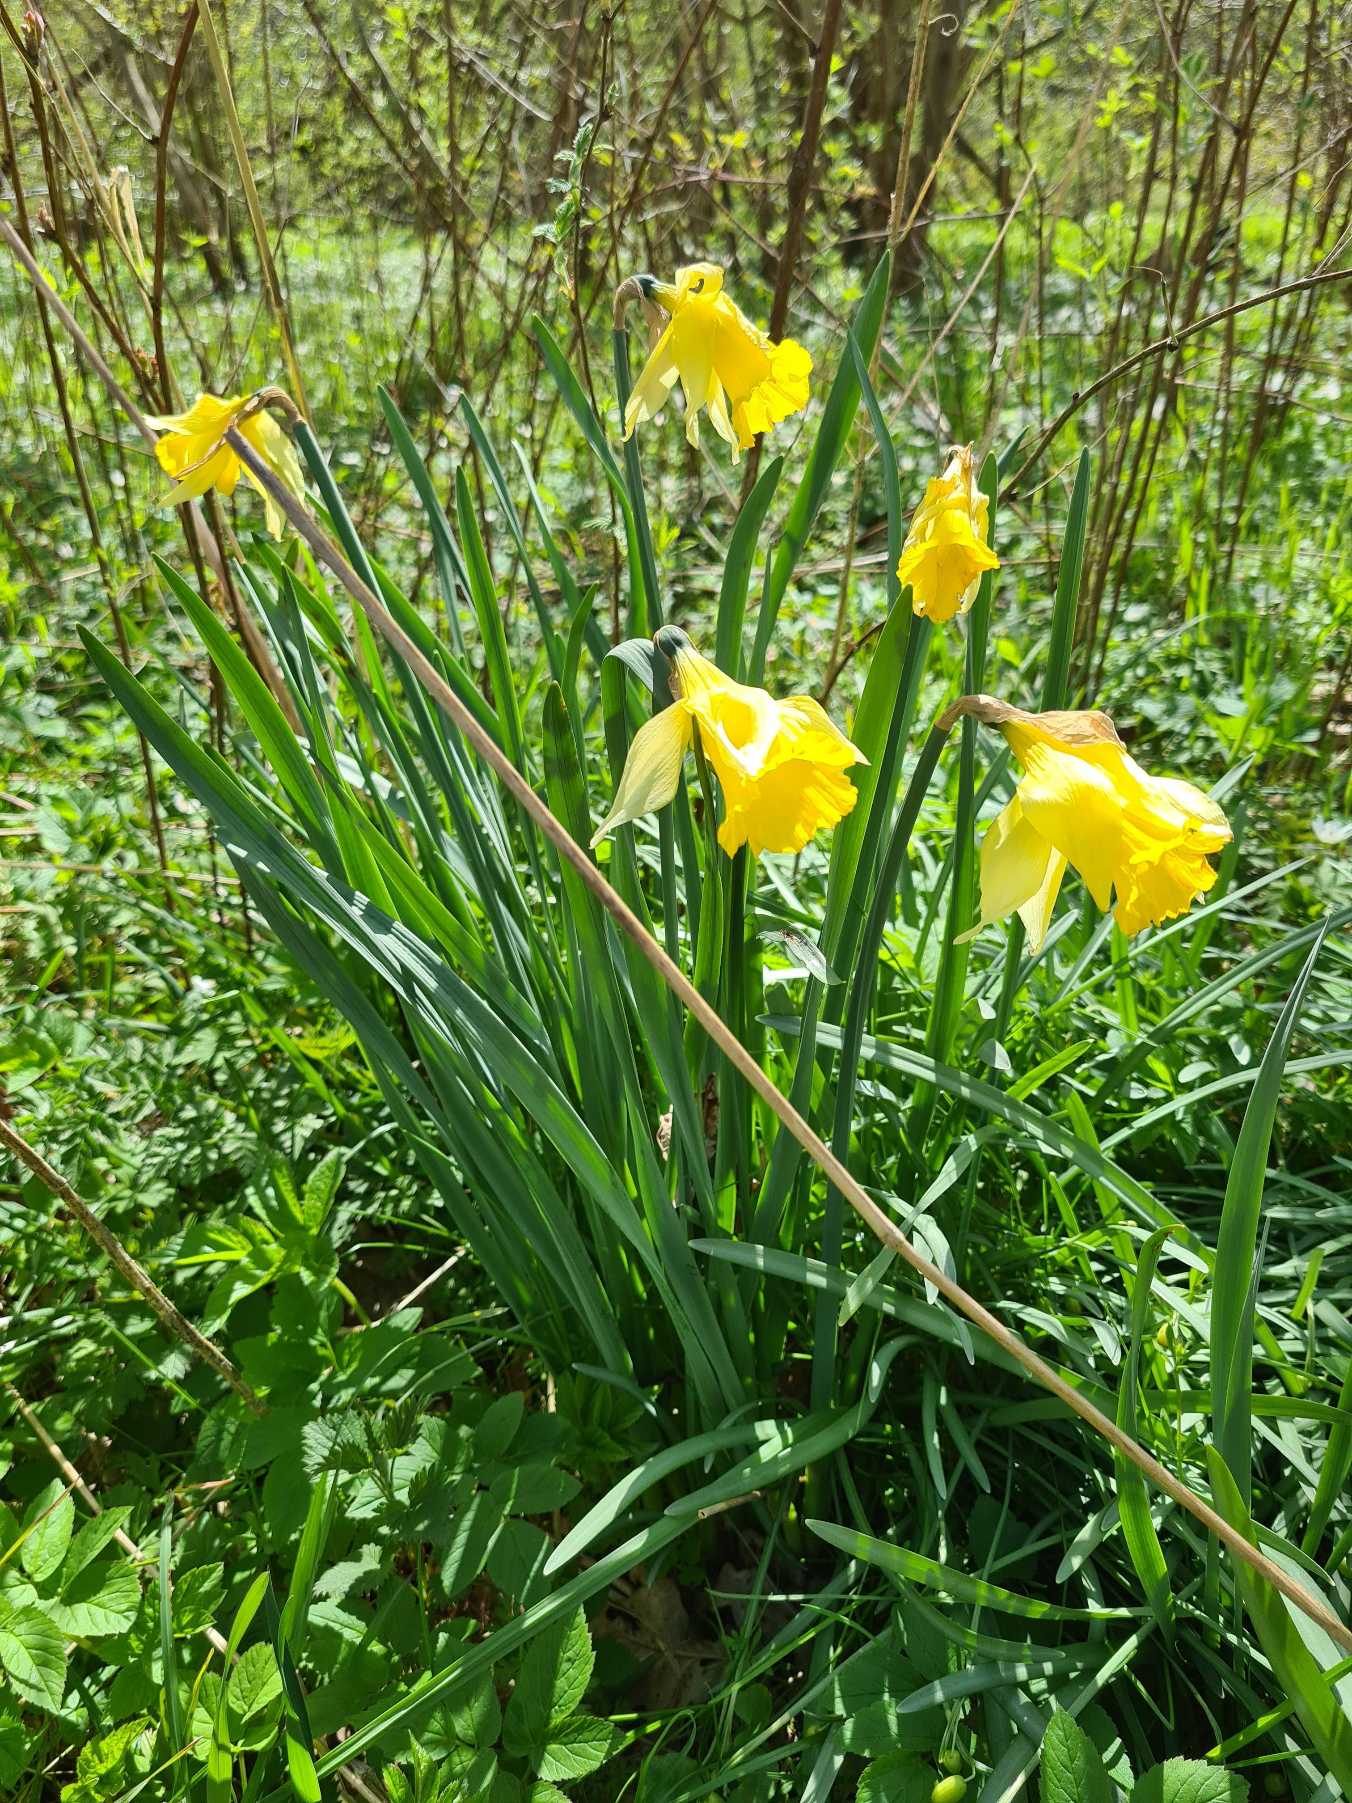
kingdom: Plantae
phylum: Tracheophyta
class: Liliopsida
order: Asparagales
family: Amaryllidaceae
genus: Narcissus
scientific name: Narcissus pseudonarcissus
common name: Påskelilje
